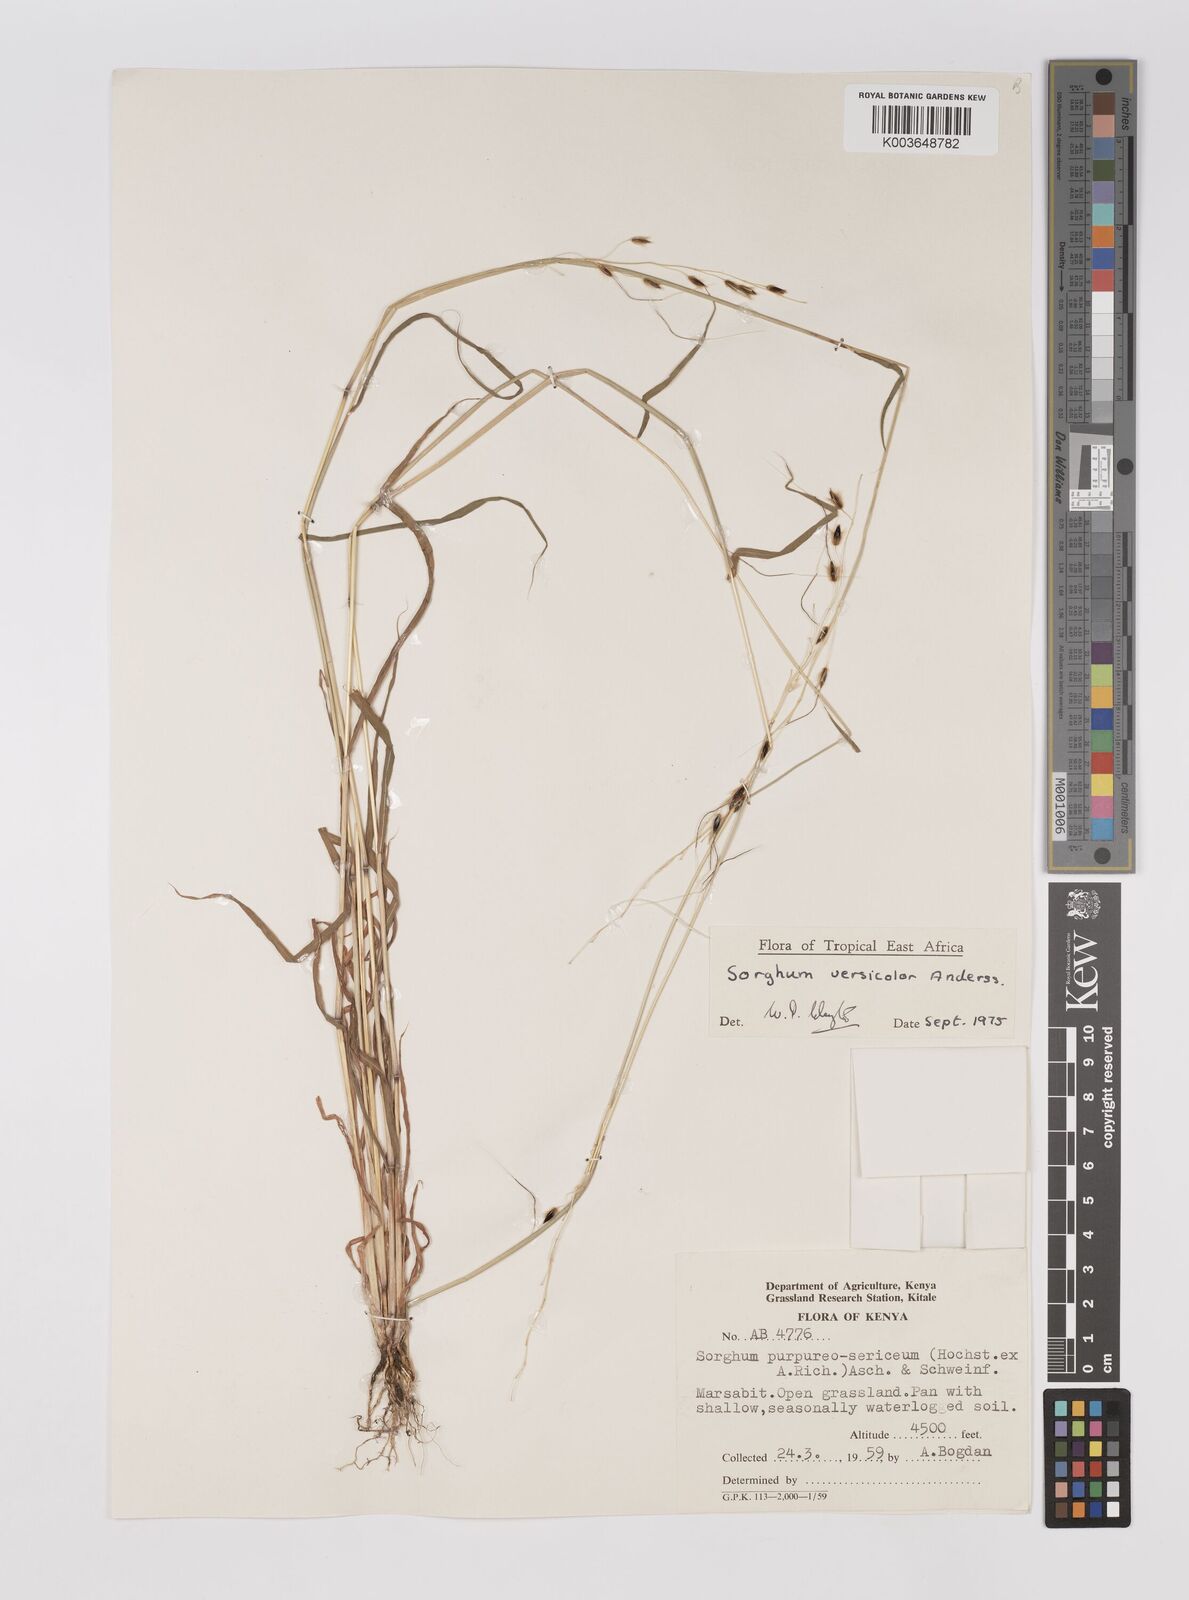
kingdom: Plantae
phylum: Tracheophyta
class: Liliopsida
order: Poales
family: Poaceae
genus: Sarga
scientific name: Sarga versicolor
